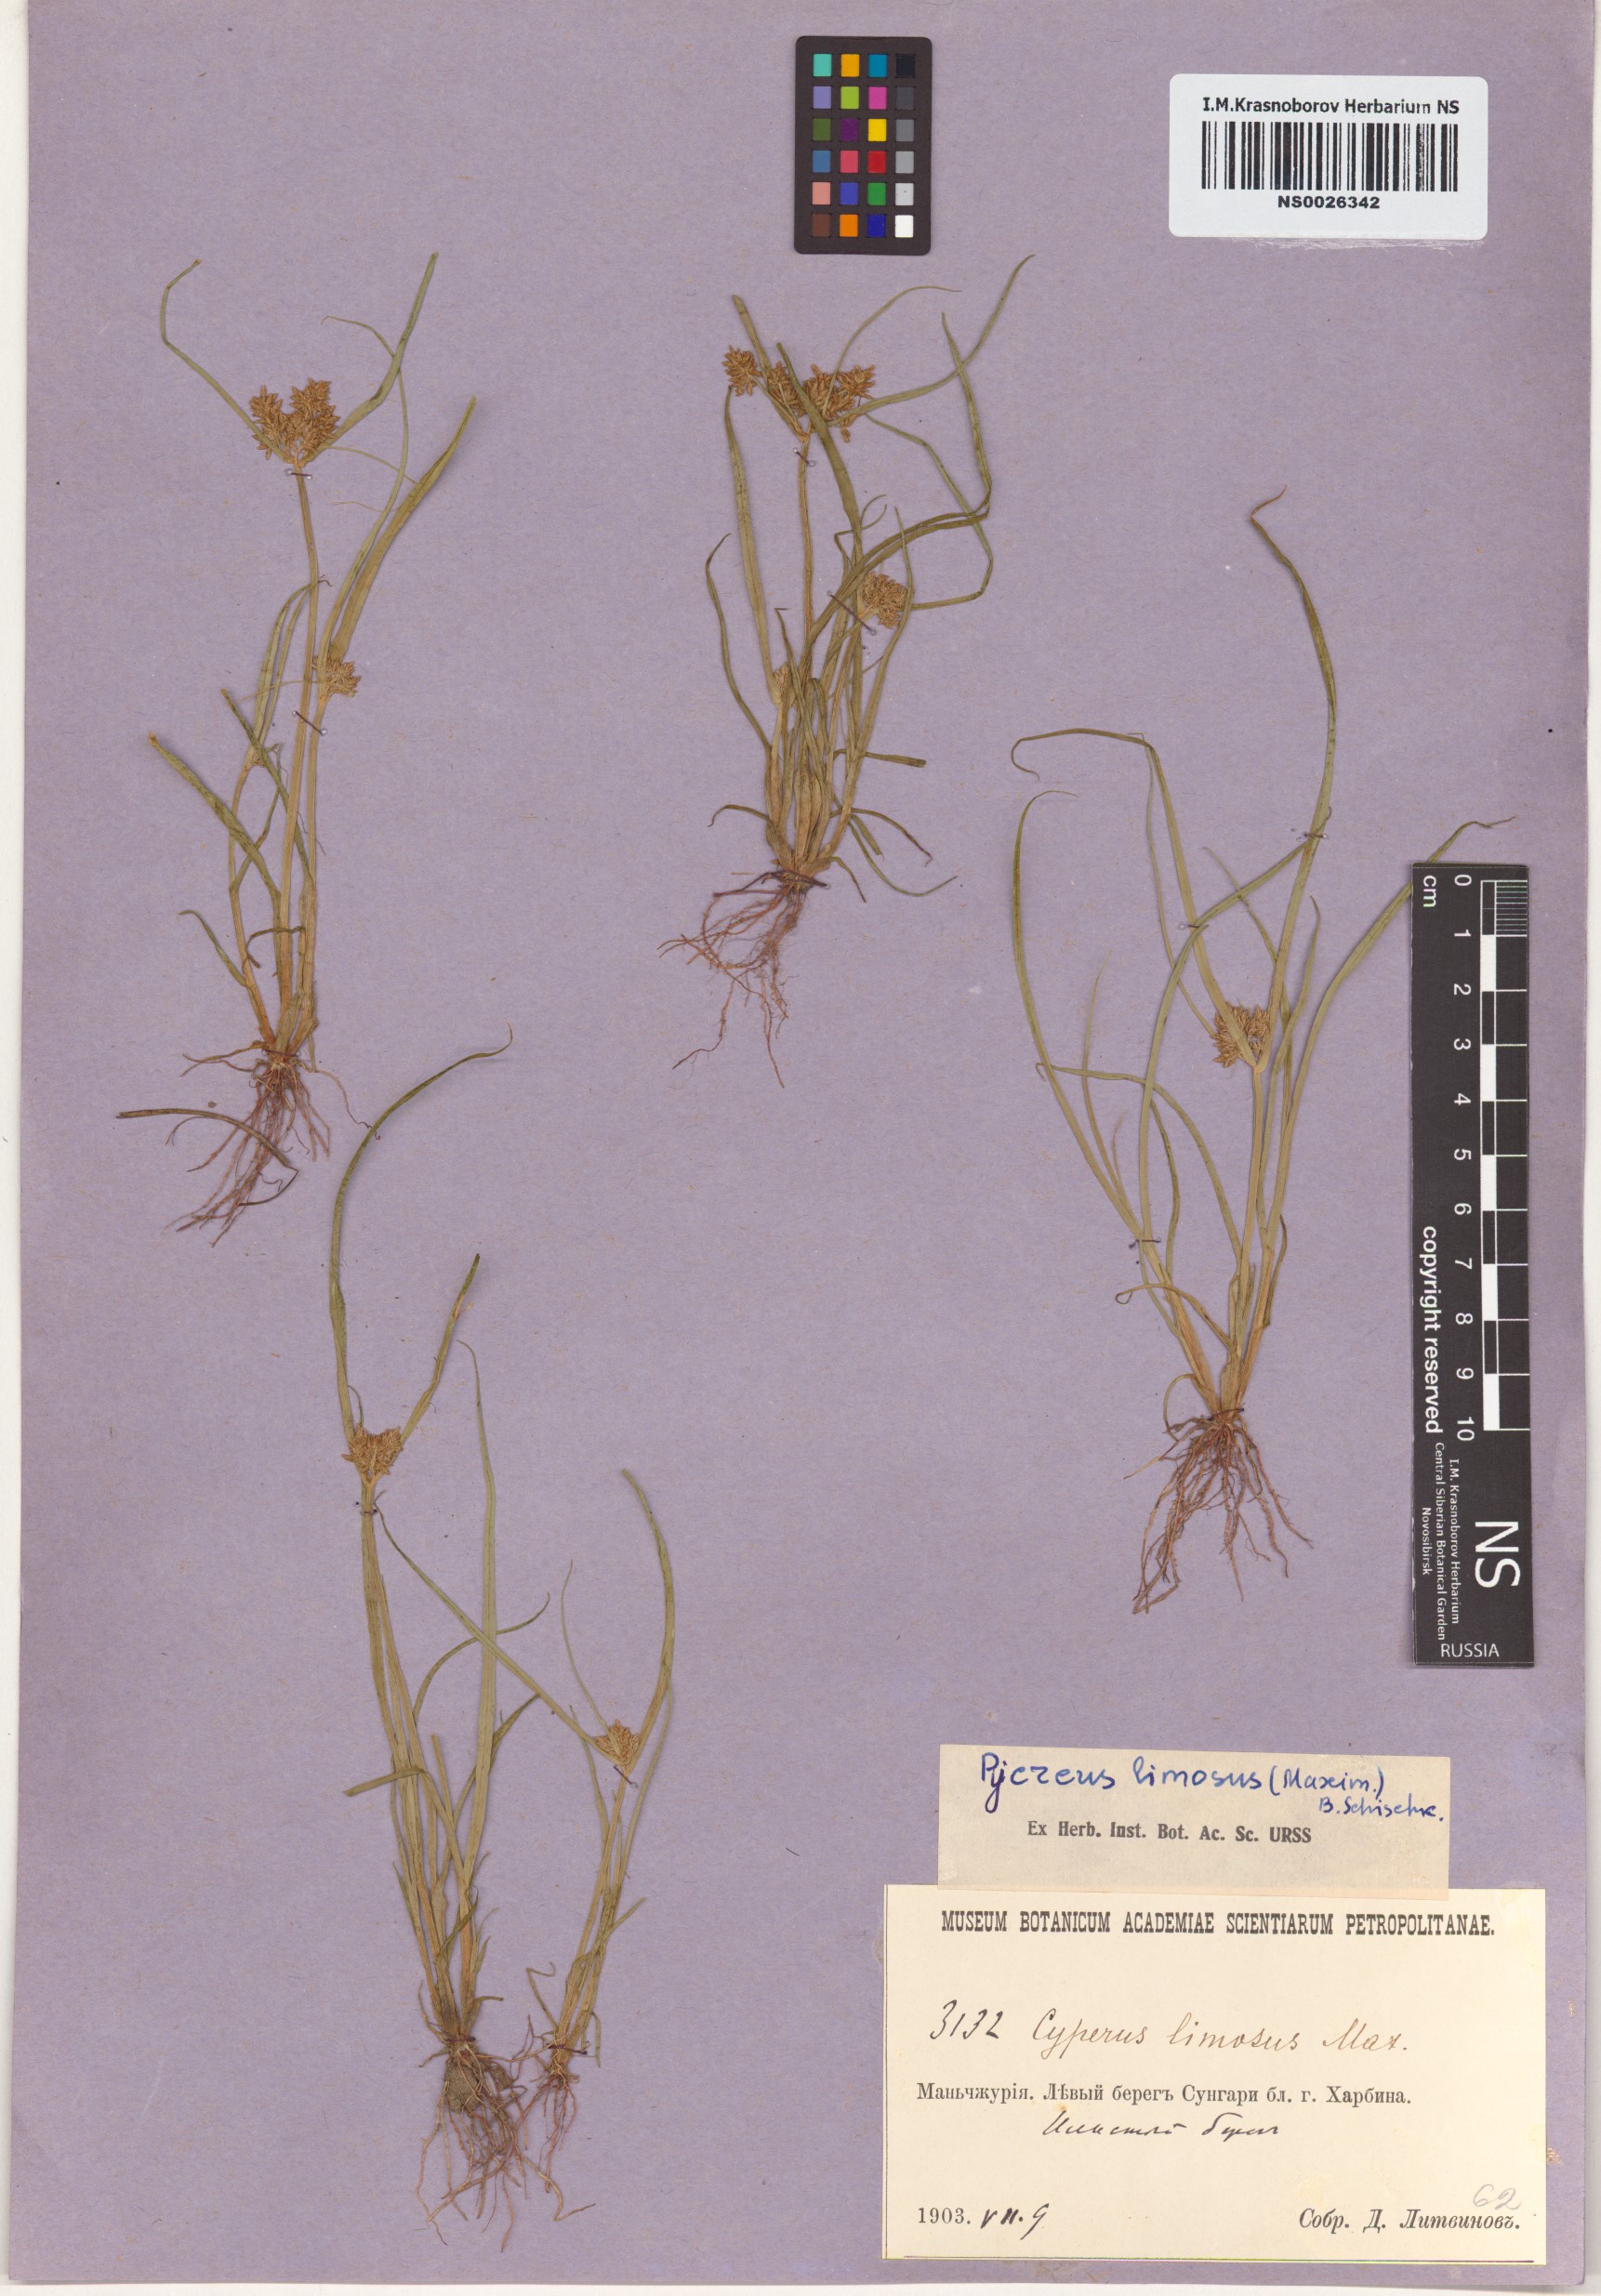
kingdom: Plantae
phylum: Tracheophyta
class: Liliopsida
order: Poales
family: Cyperaceae
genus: Cyperus
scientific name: Cyperus limosus
